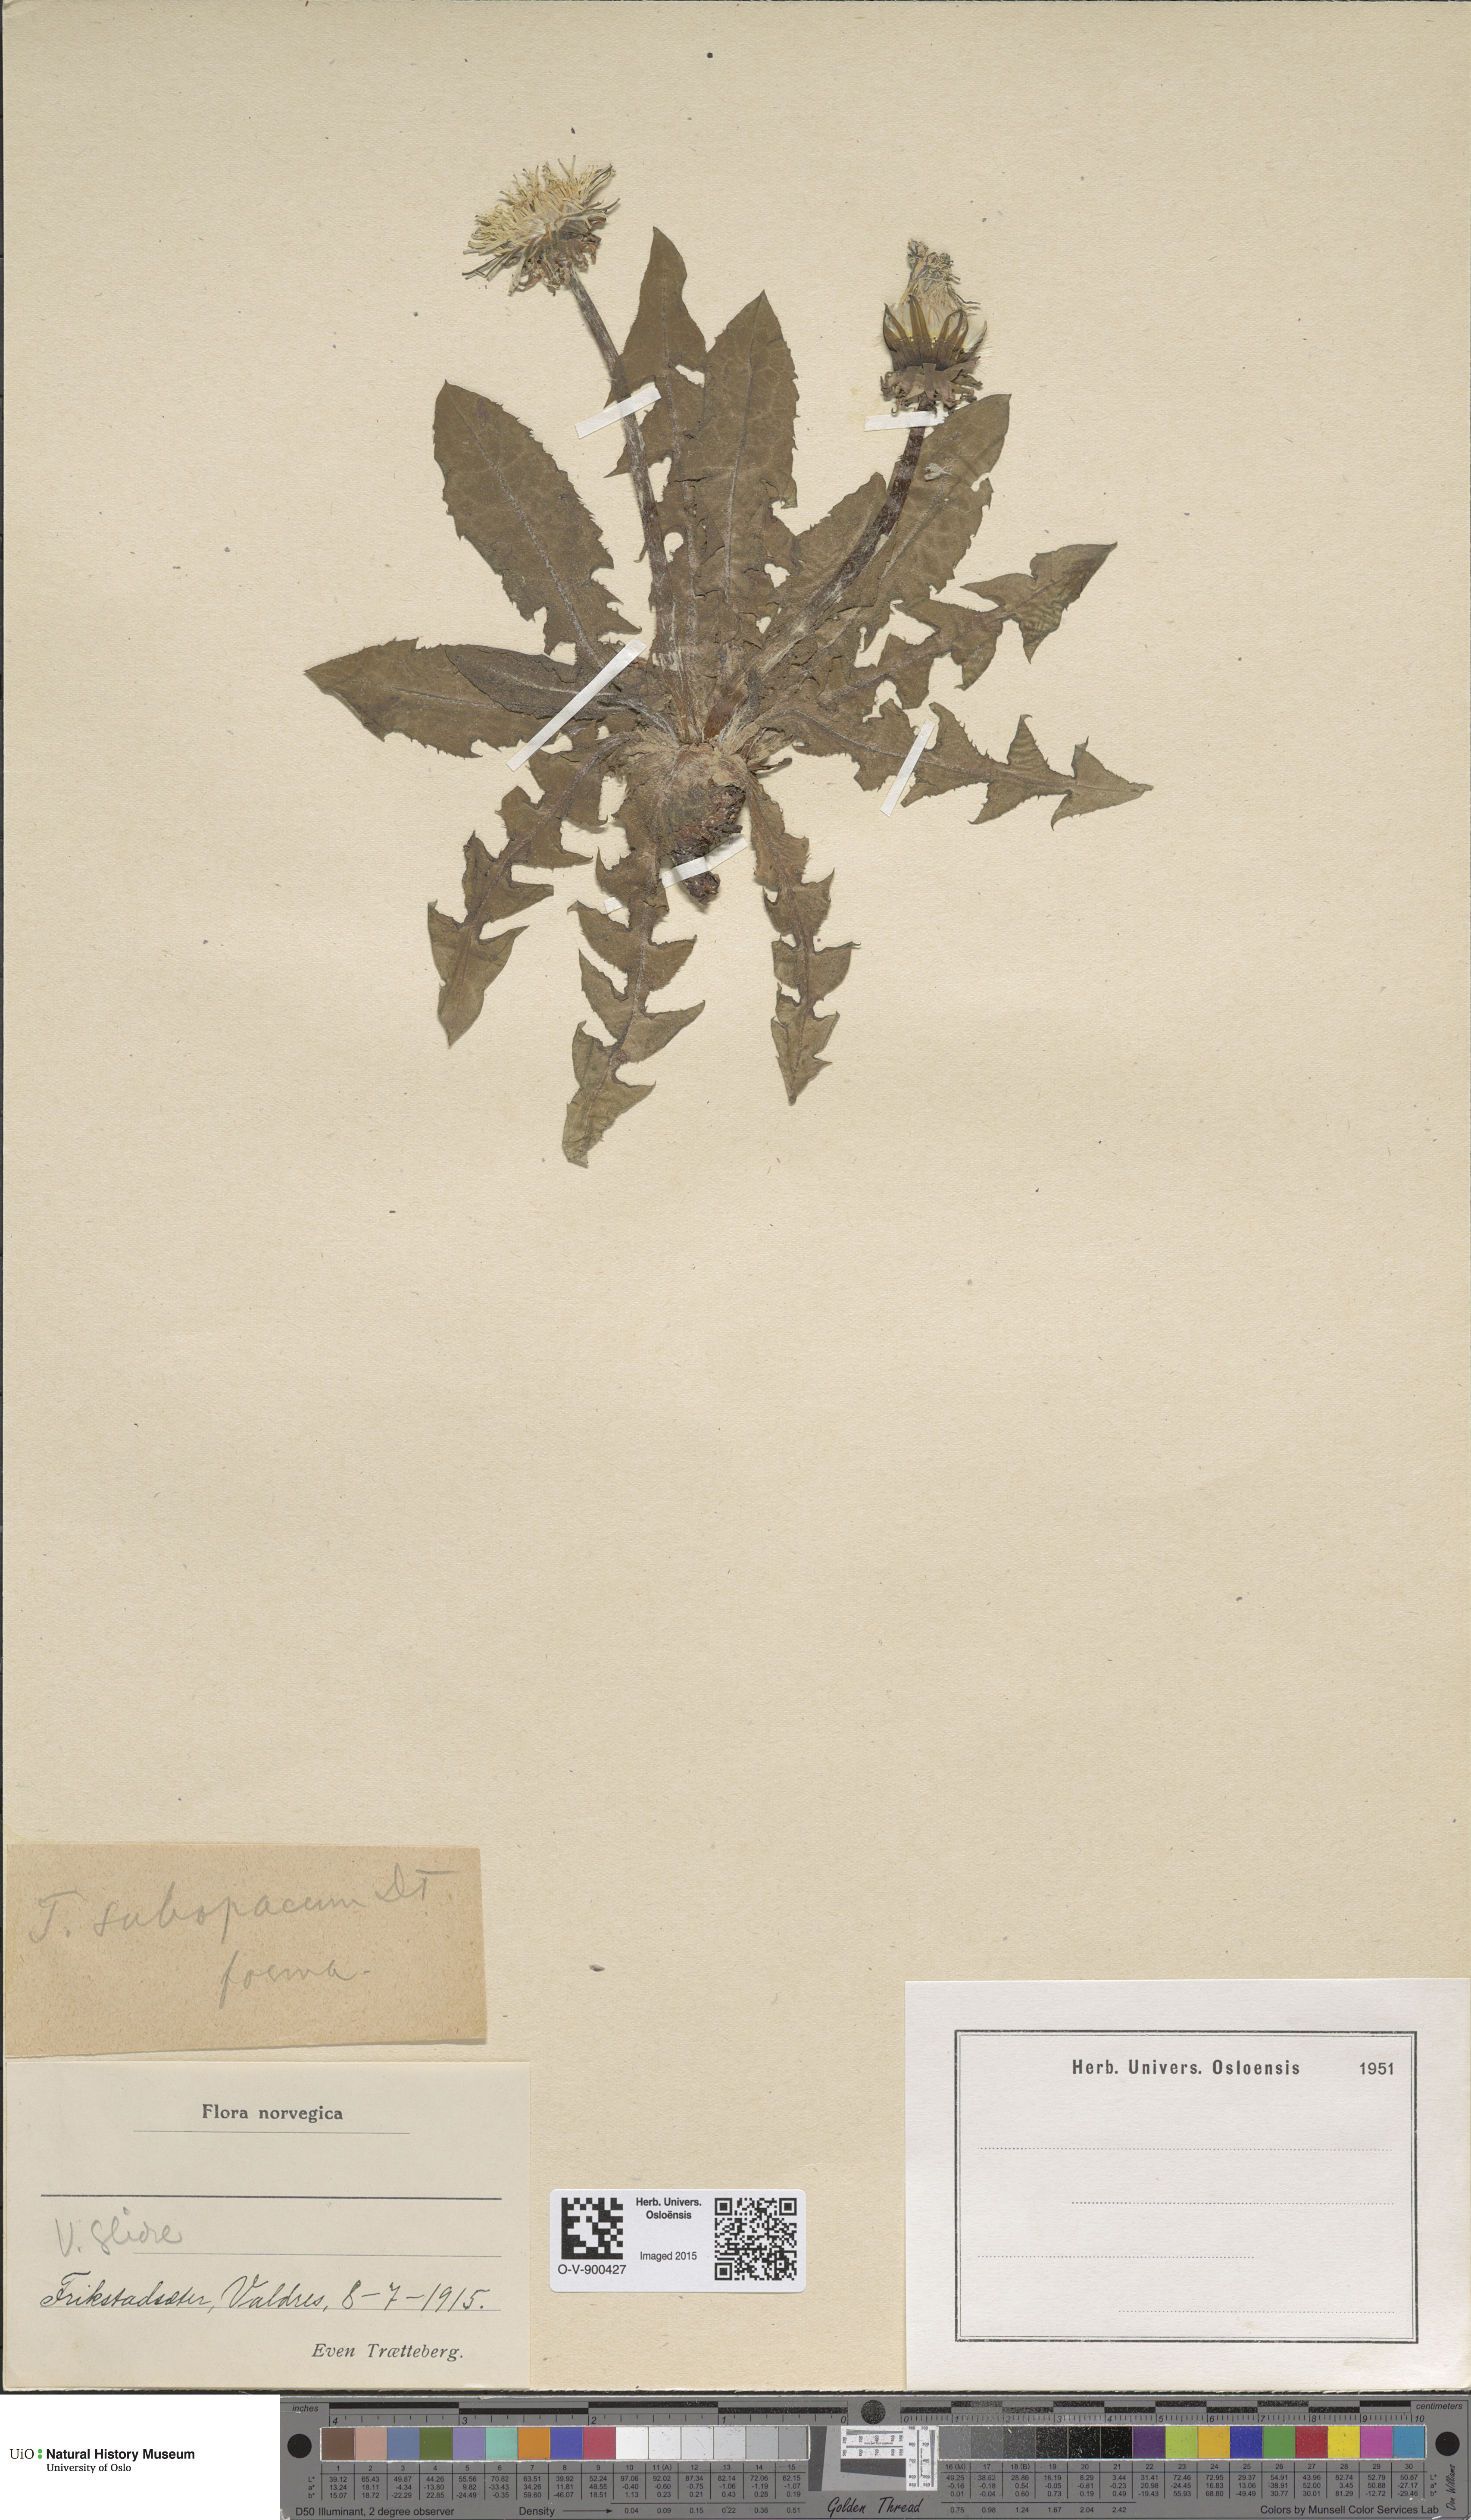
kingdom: Plantae
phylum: Tracheophyta
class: Magnoliopsida
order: Asterales
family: Asteraceae
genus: Taraxacum
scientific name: Taraxacum subopacum
